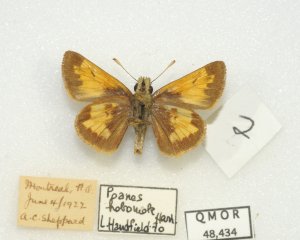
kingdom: Animalia
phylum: Arthropoda
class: Insecta
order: Lepidoptera
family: Hesperiidae
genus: Lon
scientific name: Lon hobomok
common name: Hobomok Skipper
